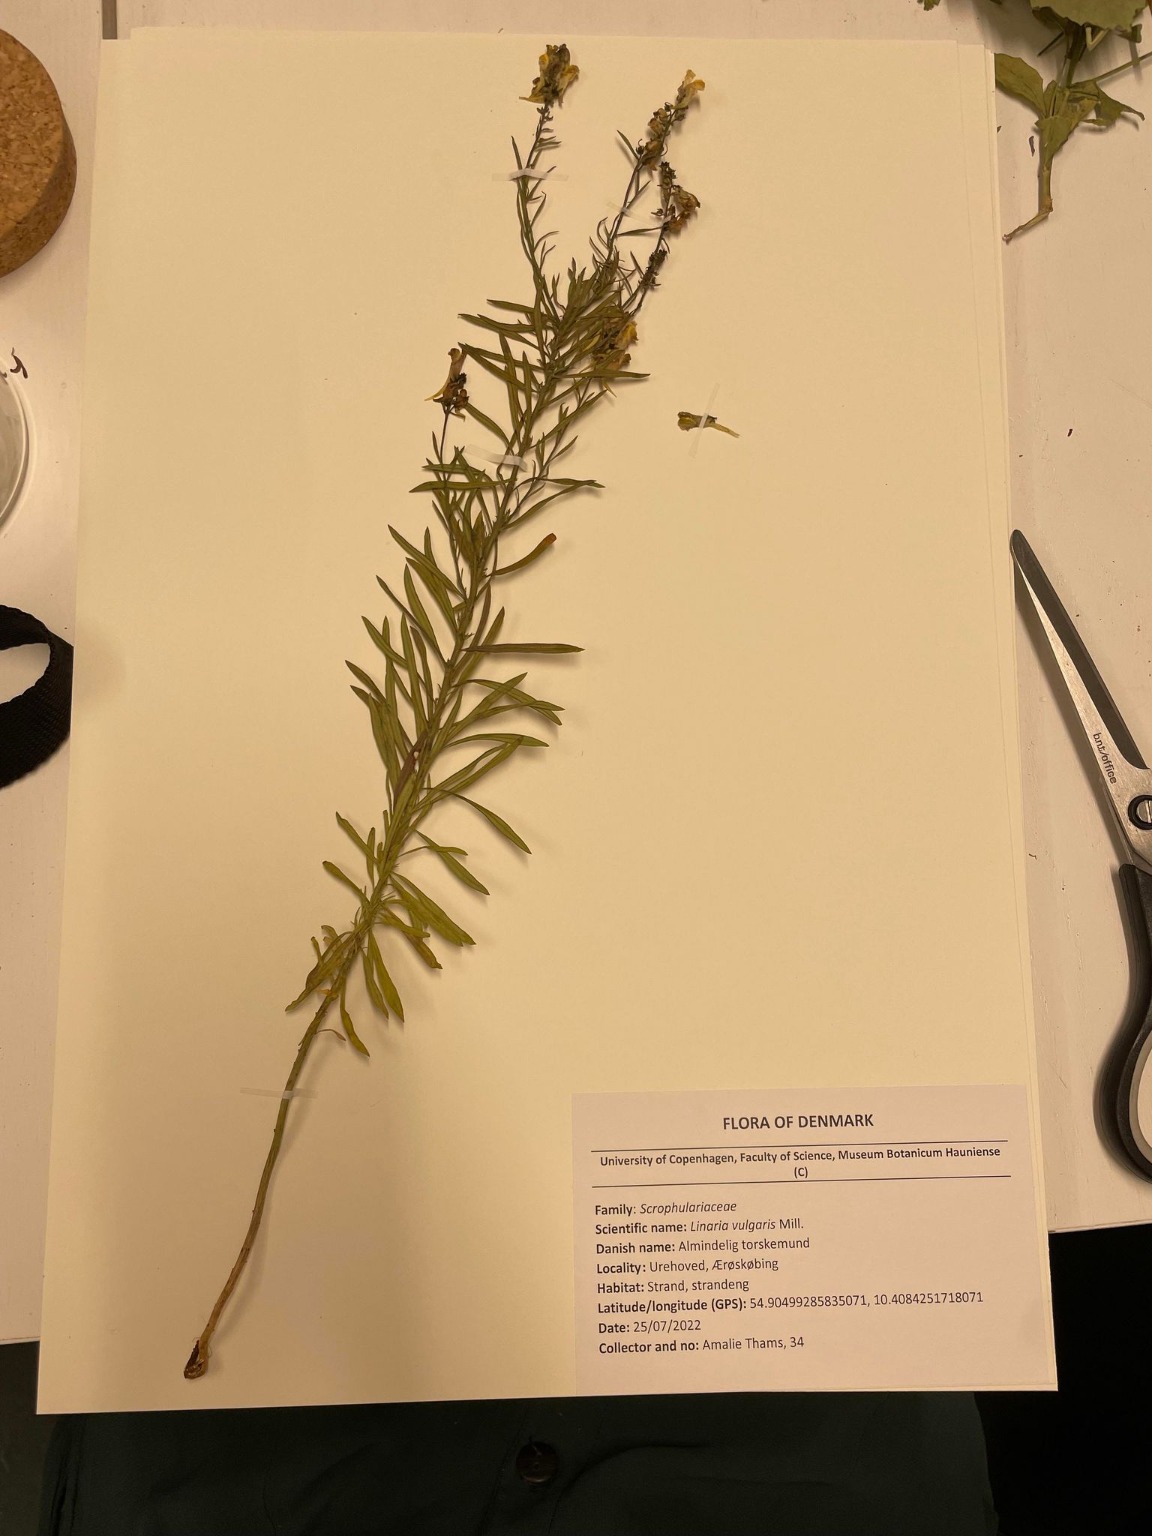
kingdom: Plantae
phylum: Tracheophyta
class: Magnoliopsida
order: Lamiales
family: Plantaginaceae
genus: Linaria
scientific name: Linaria vulgaris
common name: Almindelig torskemund
